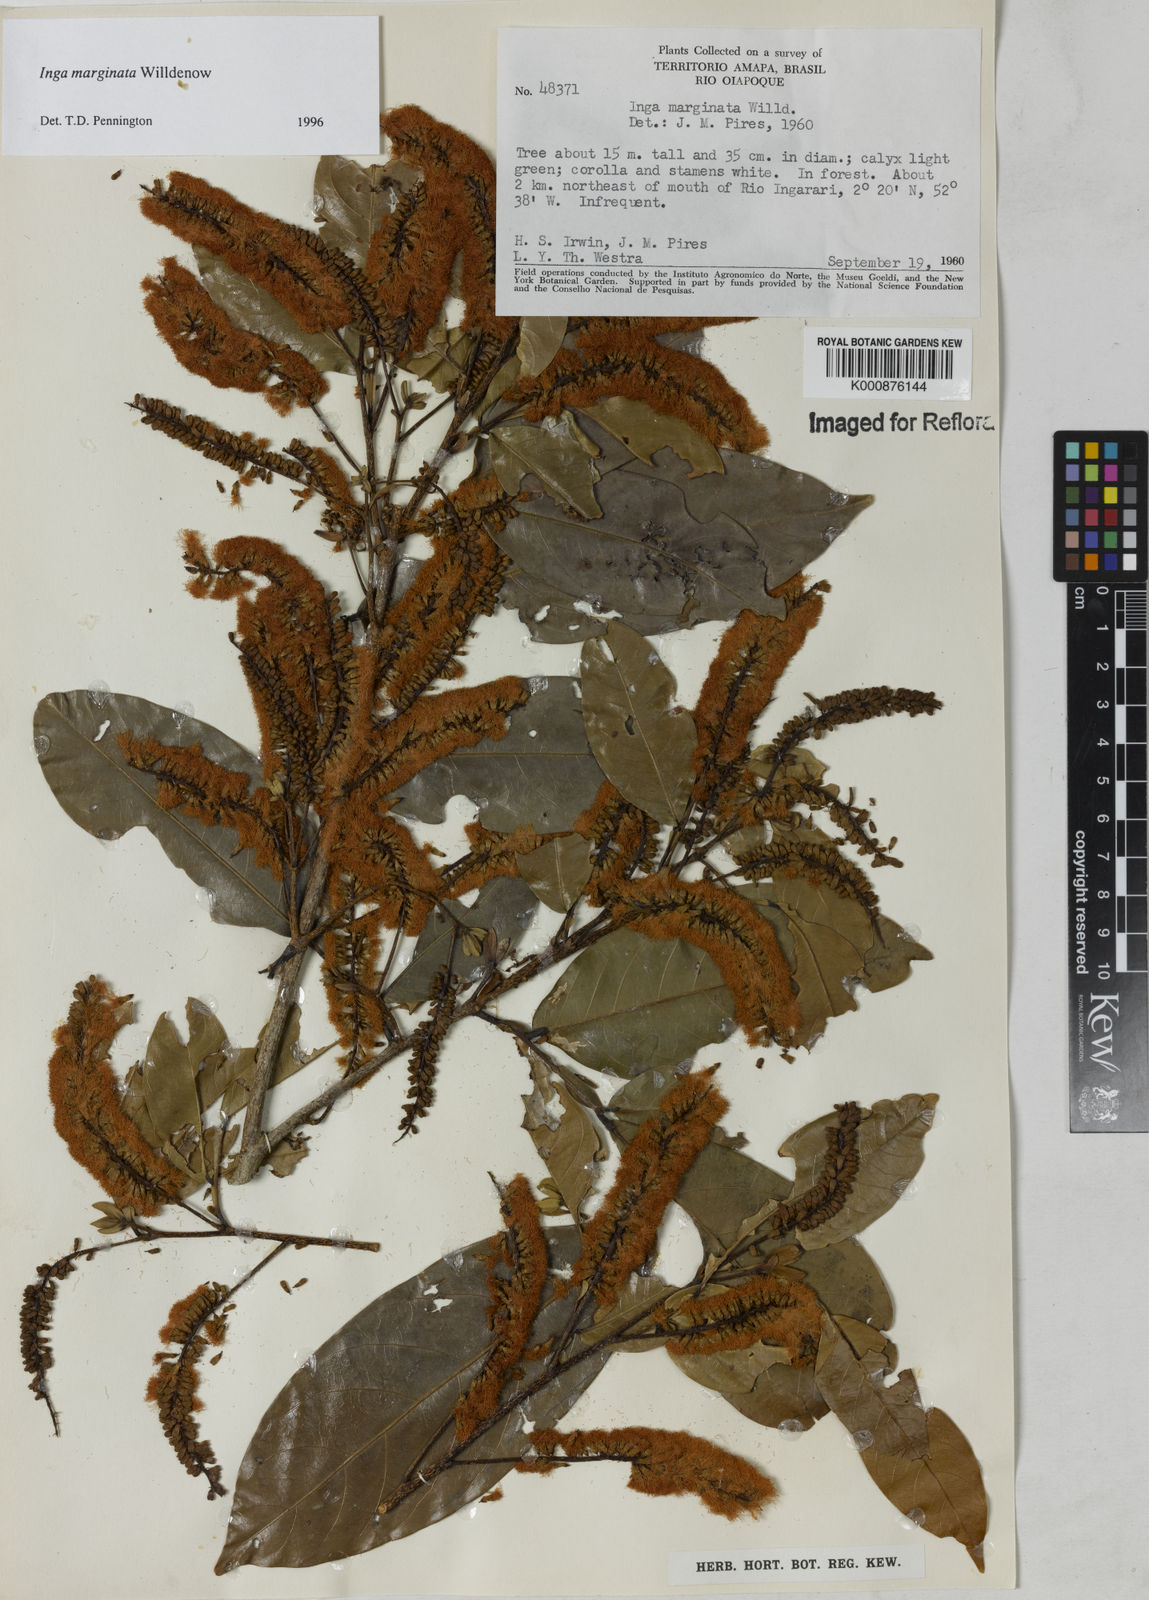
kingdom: Plantae
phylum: Tracheophyta
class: Magnoliopsida
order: Fabales
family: Fabaceae
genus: Inga
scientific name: Inga marginata
